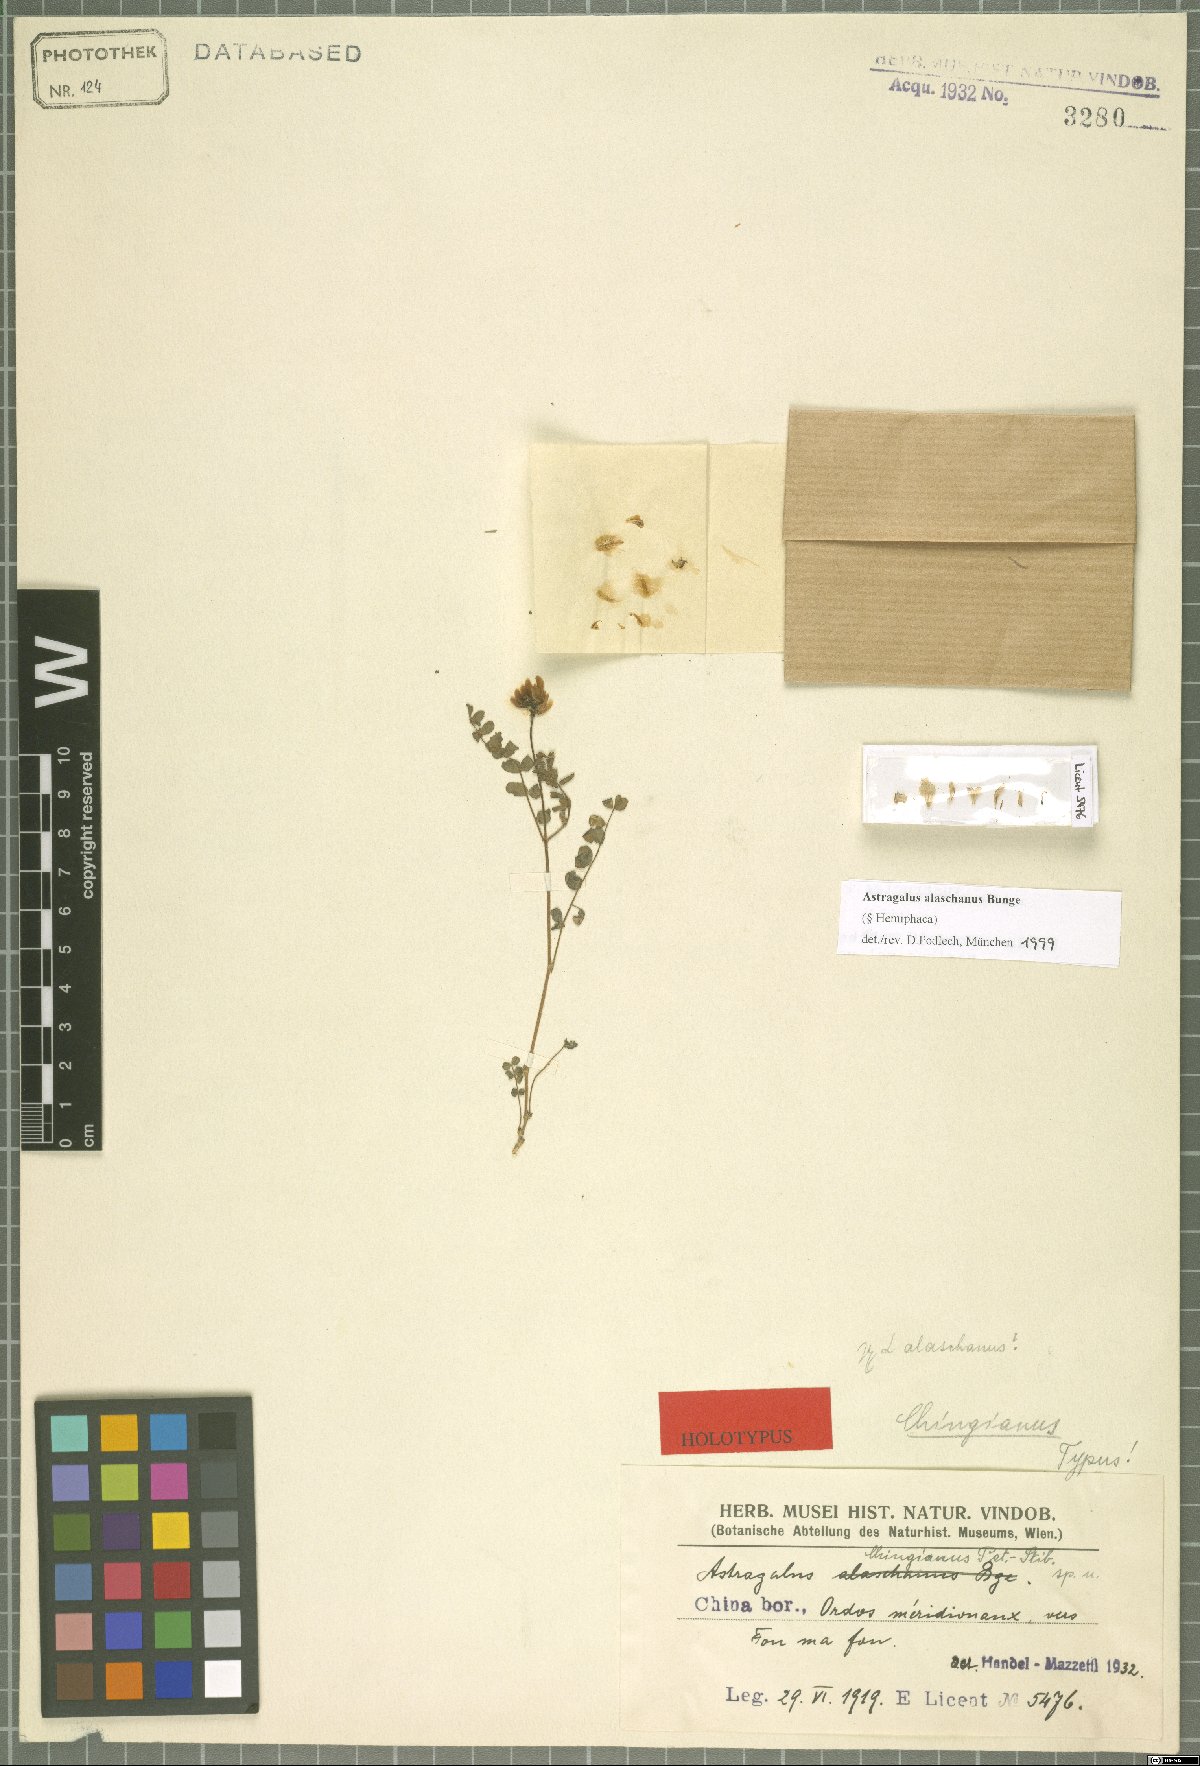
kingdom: Plantae
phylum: Tracheophyta
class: Magnoliopsida
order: Fabales
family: Fabaceae
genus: Astragalus
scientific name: Astragalus alaschanus
